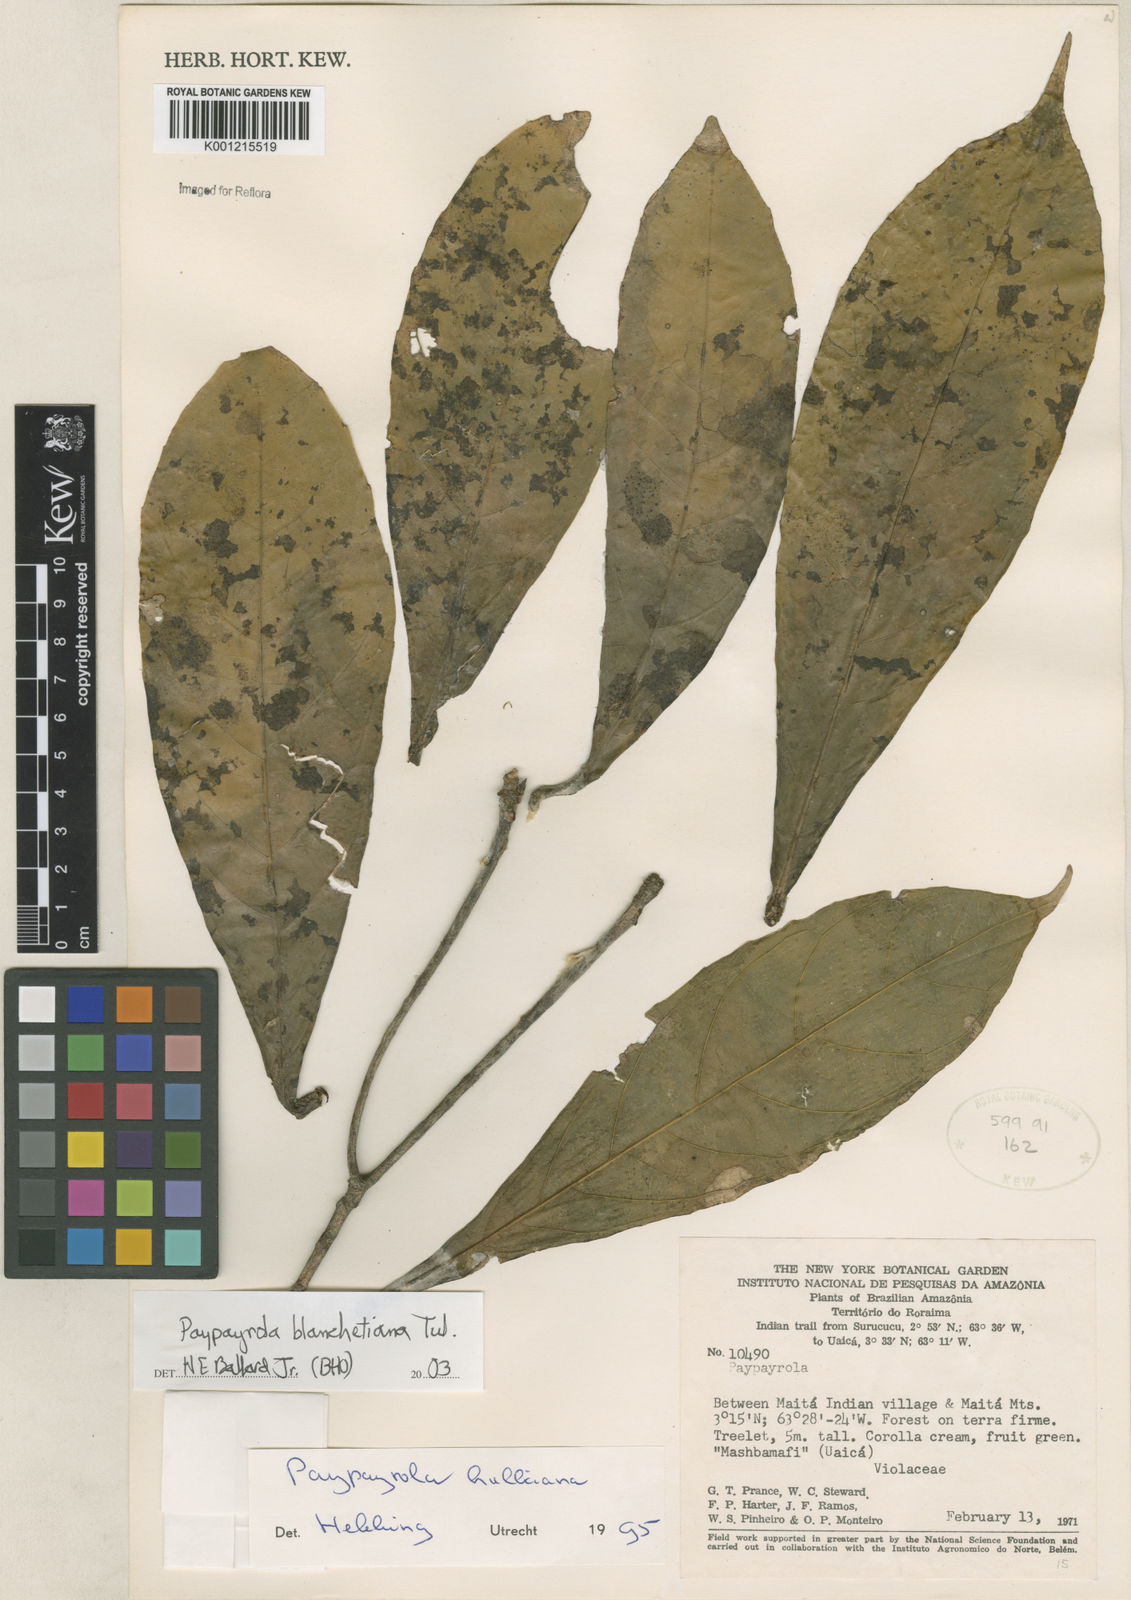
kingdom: Plantae
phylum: Tracheophyta
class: Magnoliopsida
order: Malpighiales
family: Violaceae
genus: Paypayrola
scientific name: Paypayrola blanchetiana
